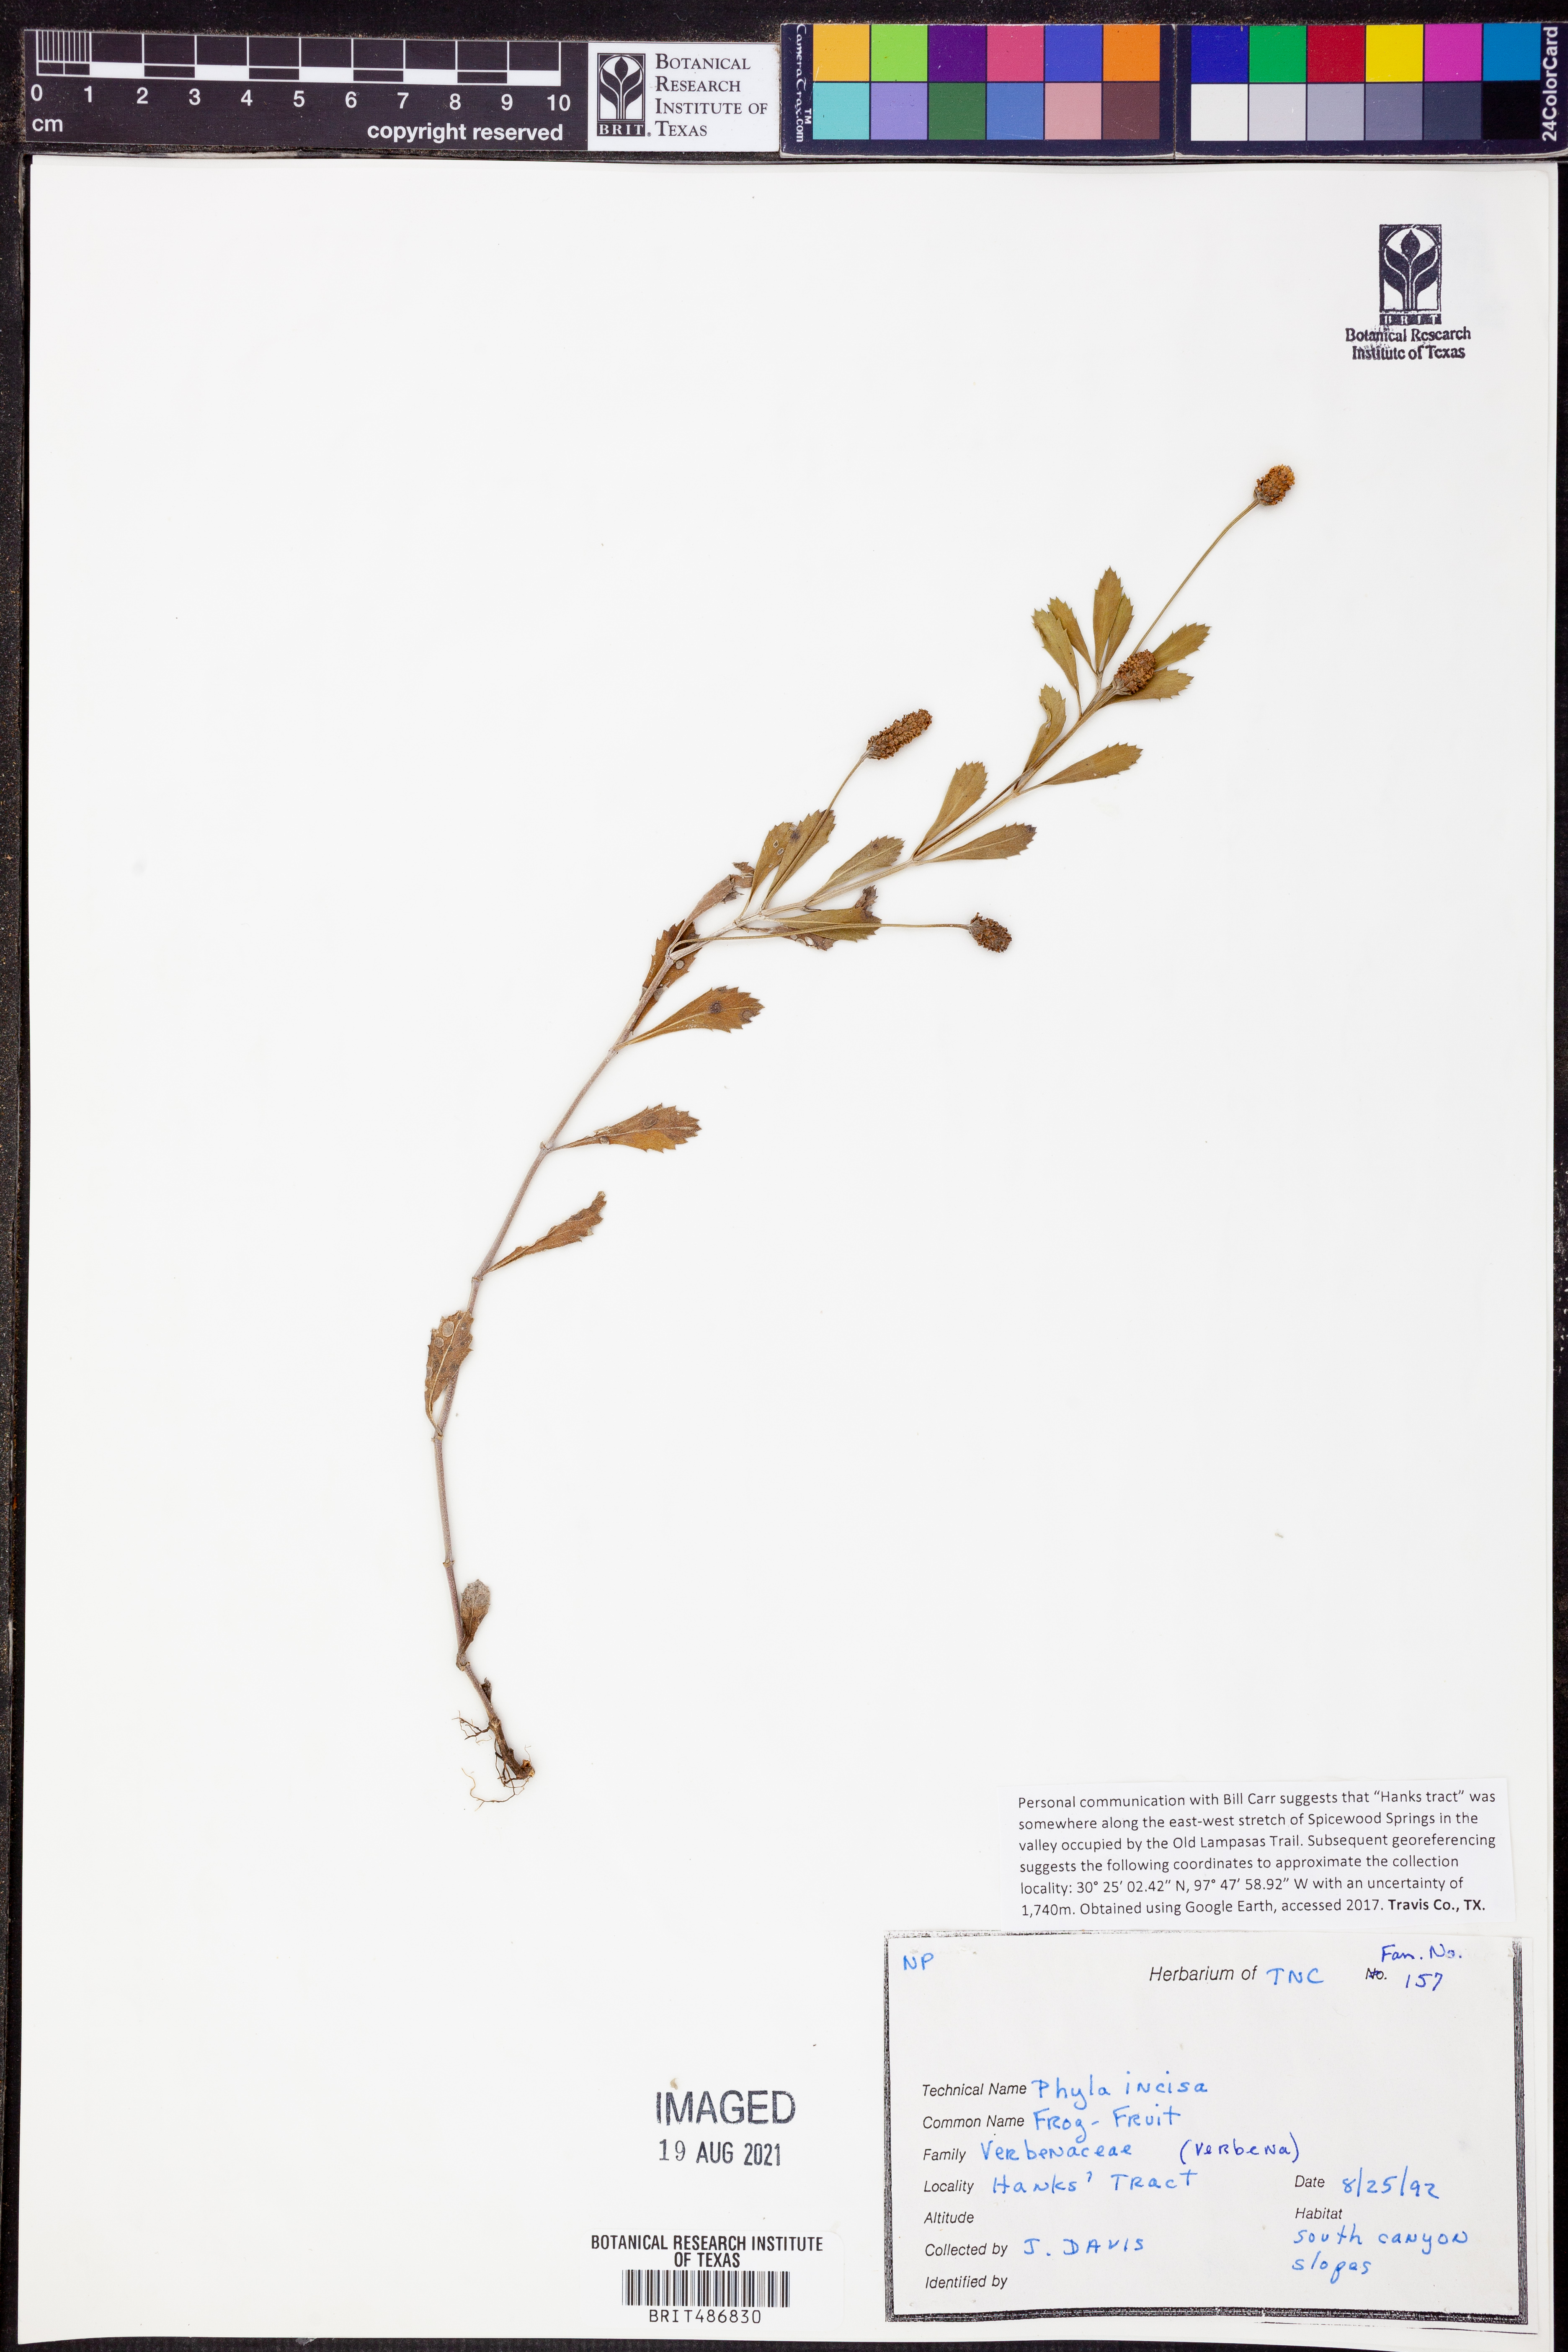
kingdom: Plantae
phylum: Tracheophyta
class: Magnoliopsida
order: Lamiales
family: Verbenaceae
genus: Phyla
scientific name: Phyla nodiflora
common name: Frogfruit
